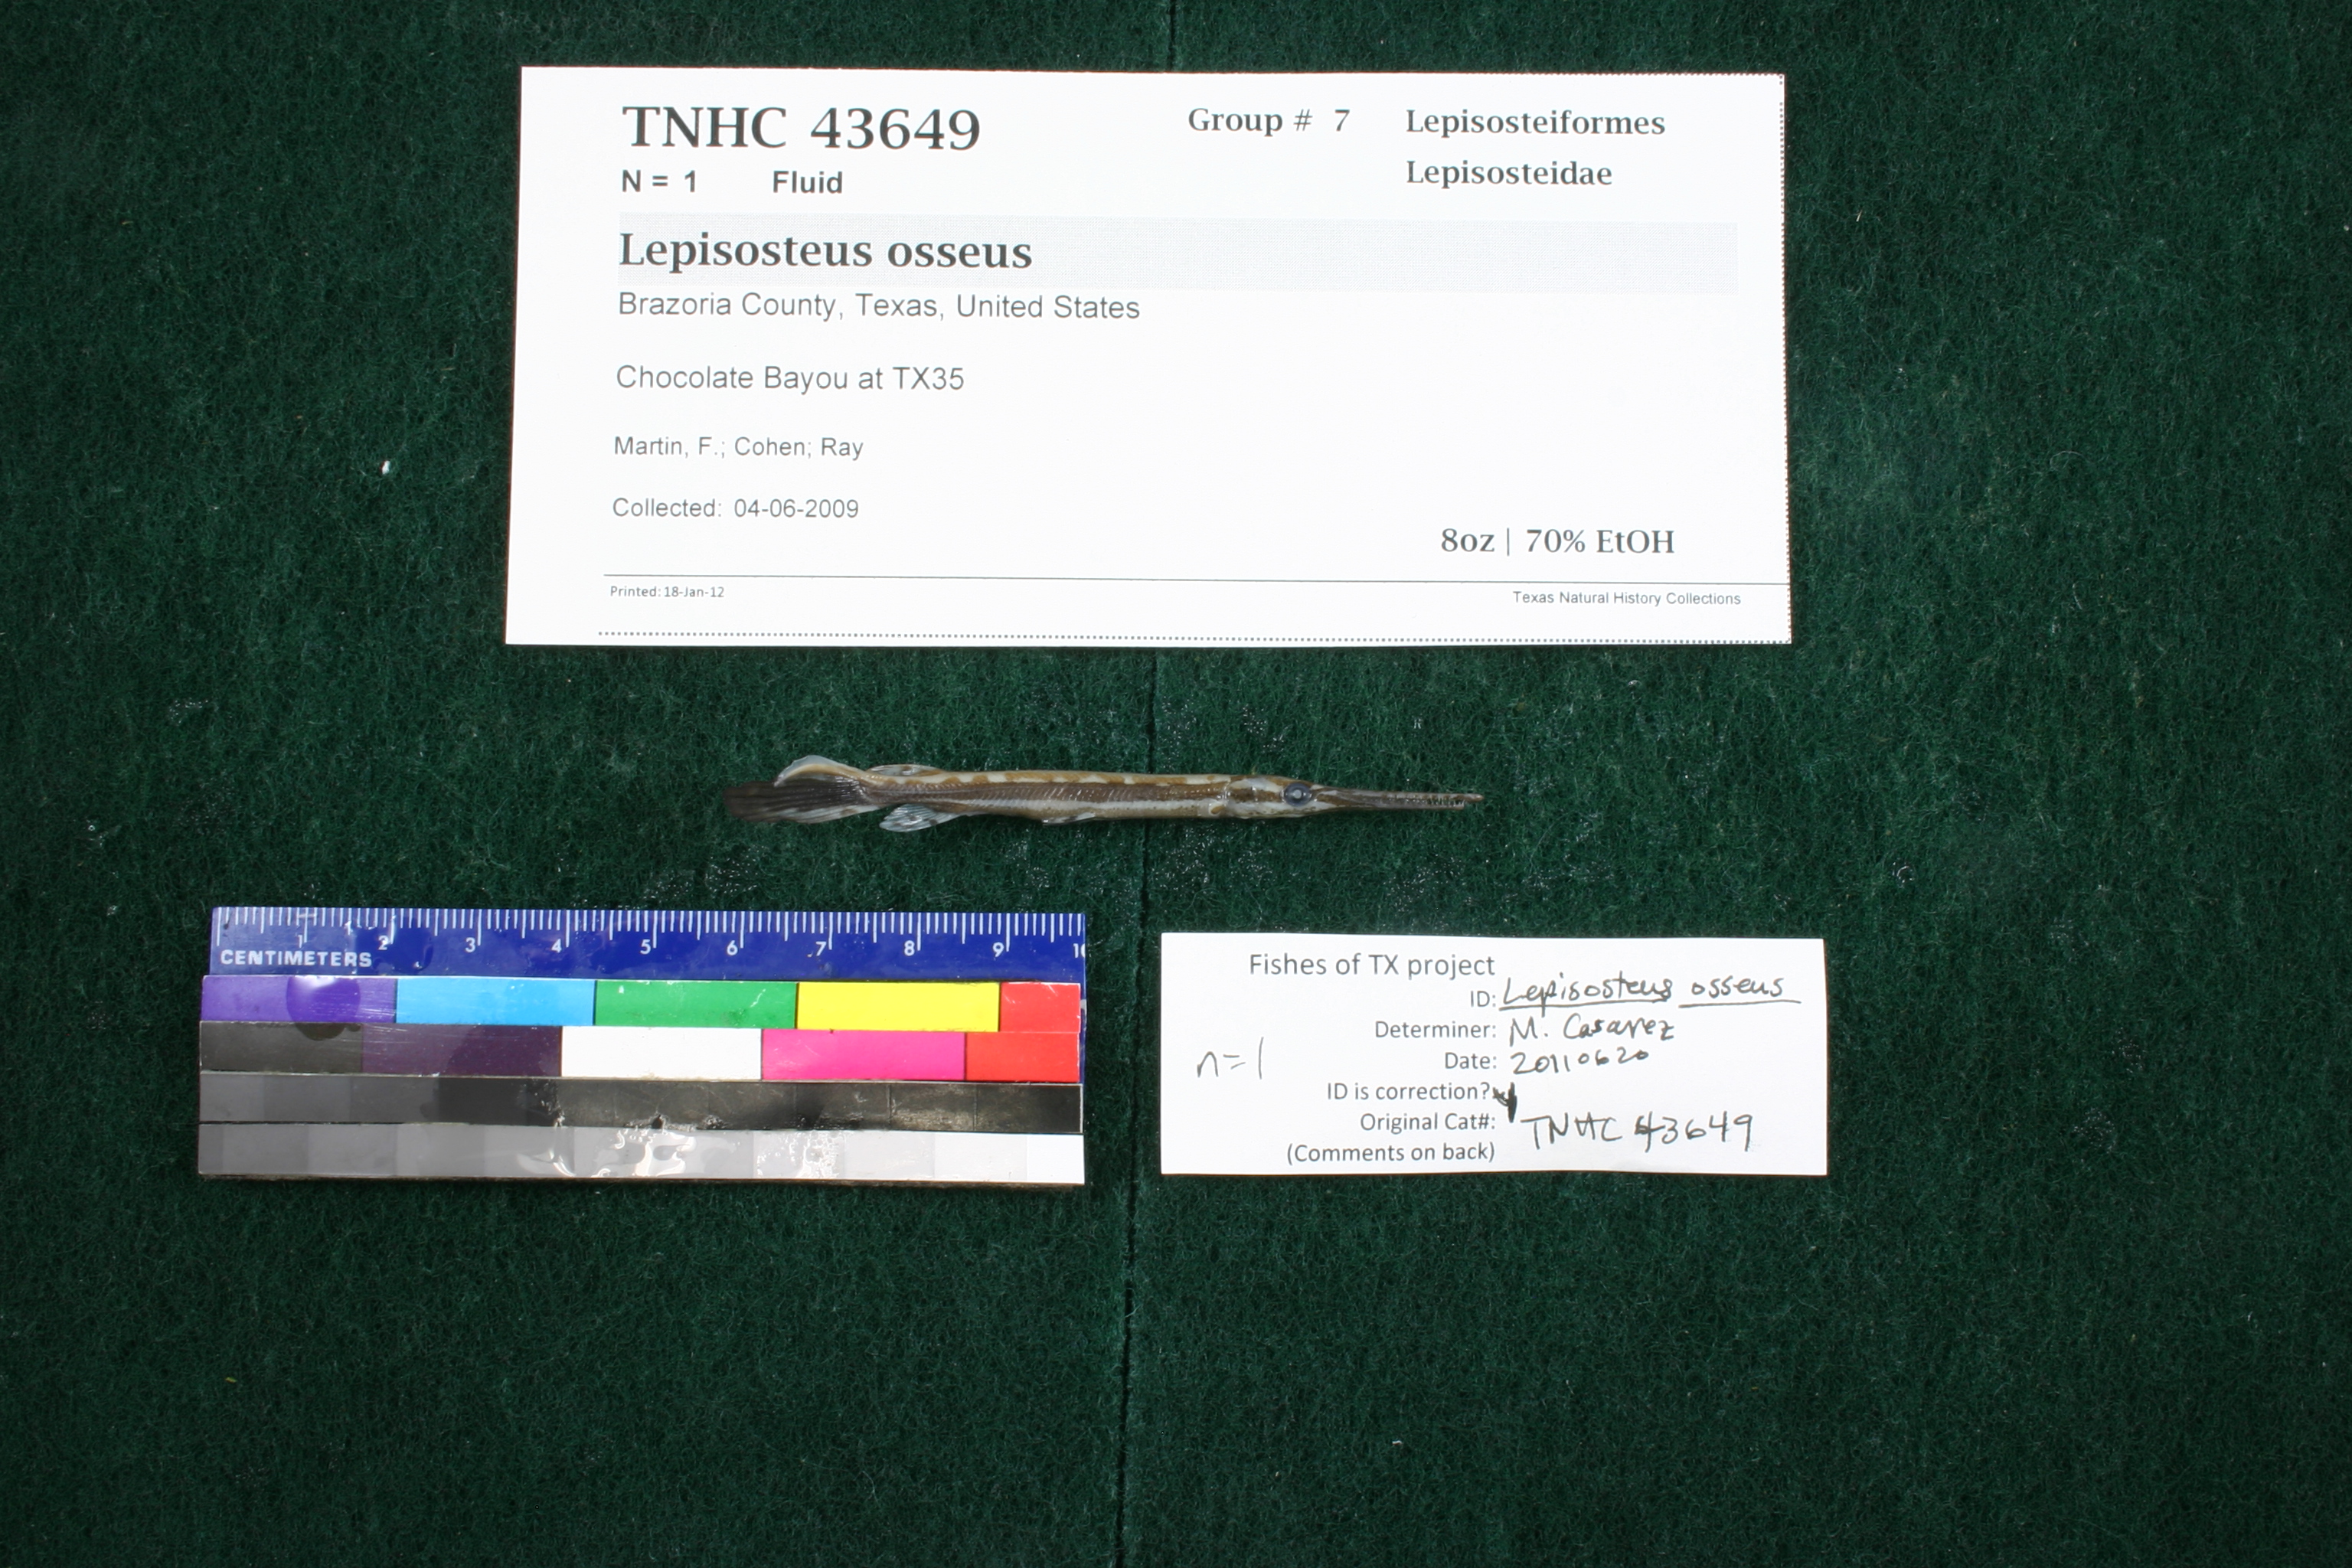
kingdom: Animalia
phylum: Chordata
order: Lepisosteiformes
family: Lepisosteidae
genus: Lepisosteus
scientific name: Lepisosteus osseus
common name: Longnose gar
